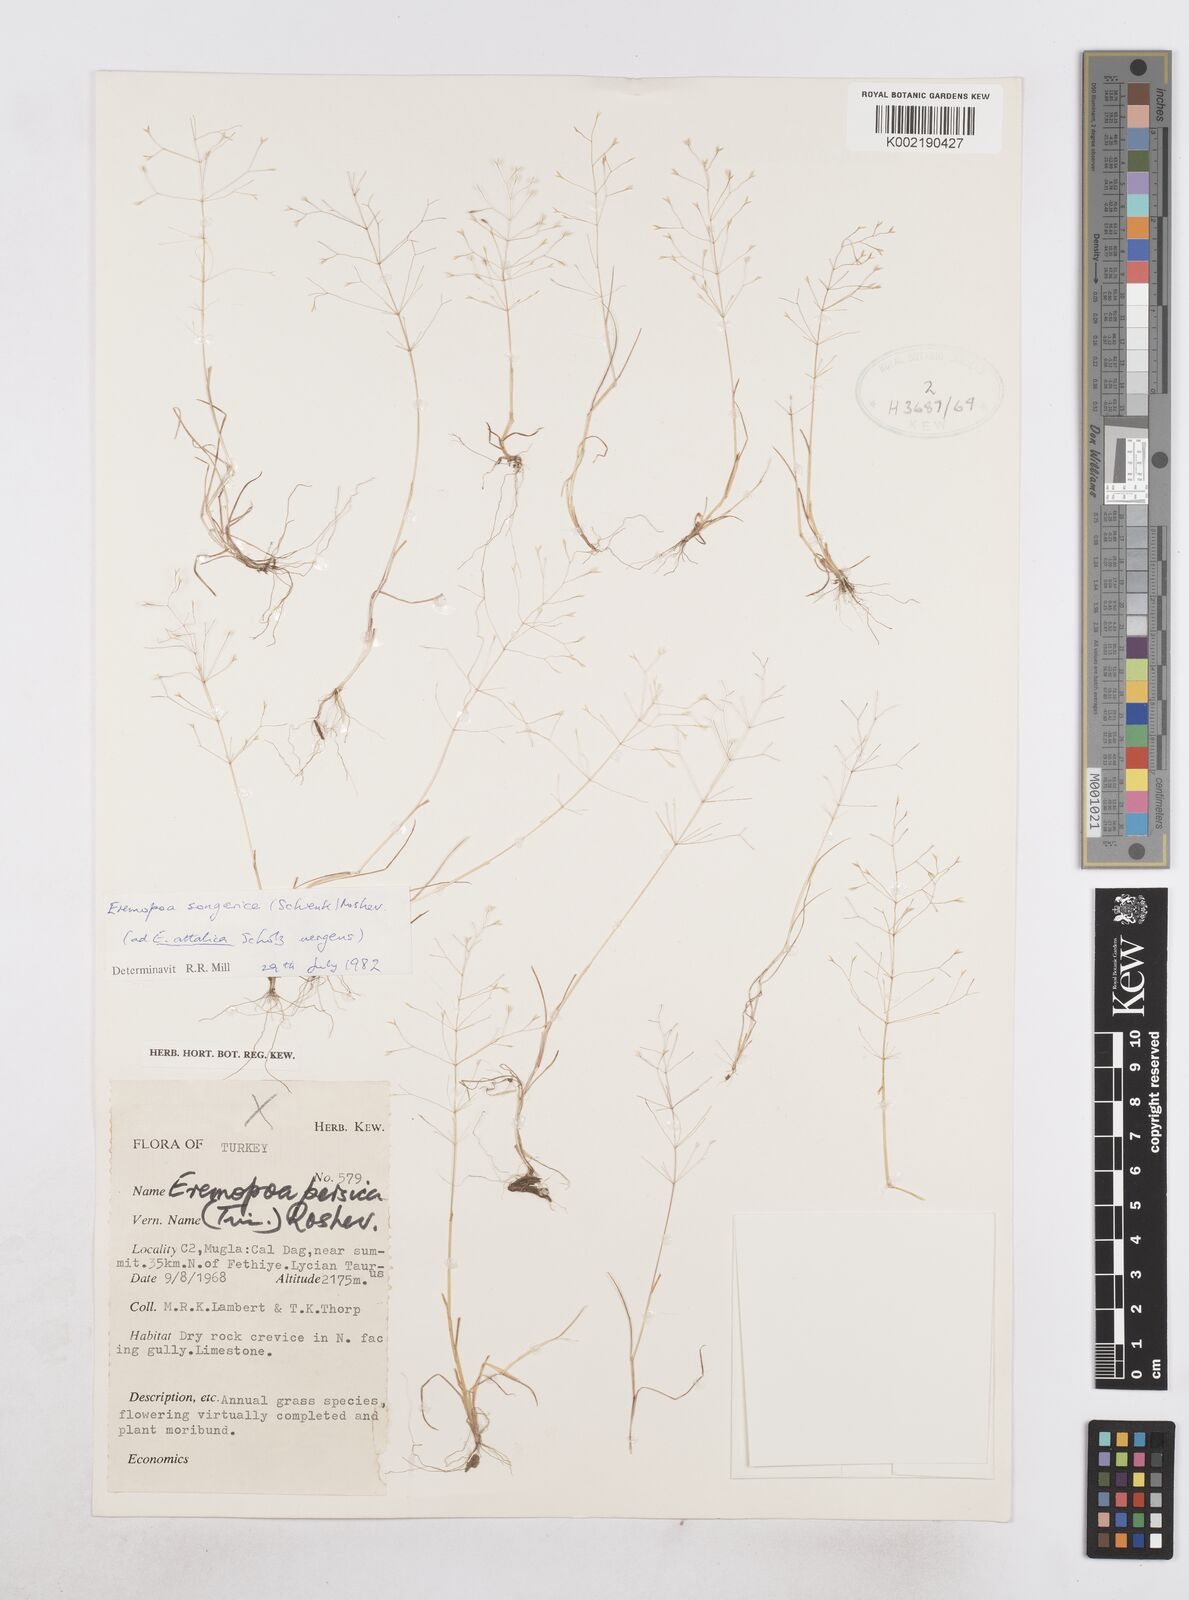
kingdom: Plantae
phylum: Tracheophyta
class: Liliopsida
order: Poales
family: Poaceae
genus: Poa
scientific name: Poa diaphora
